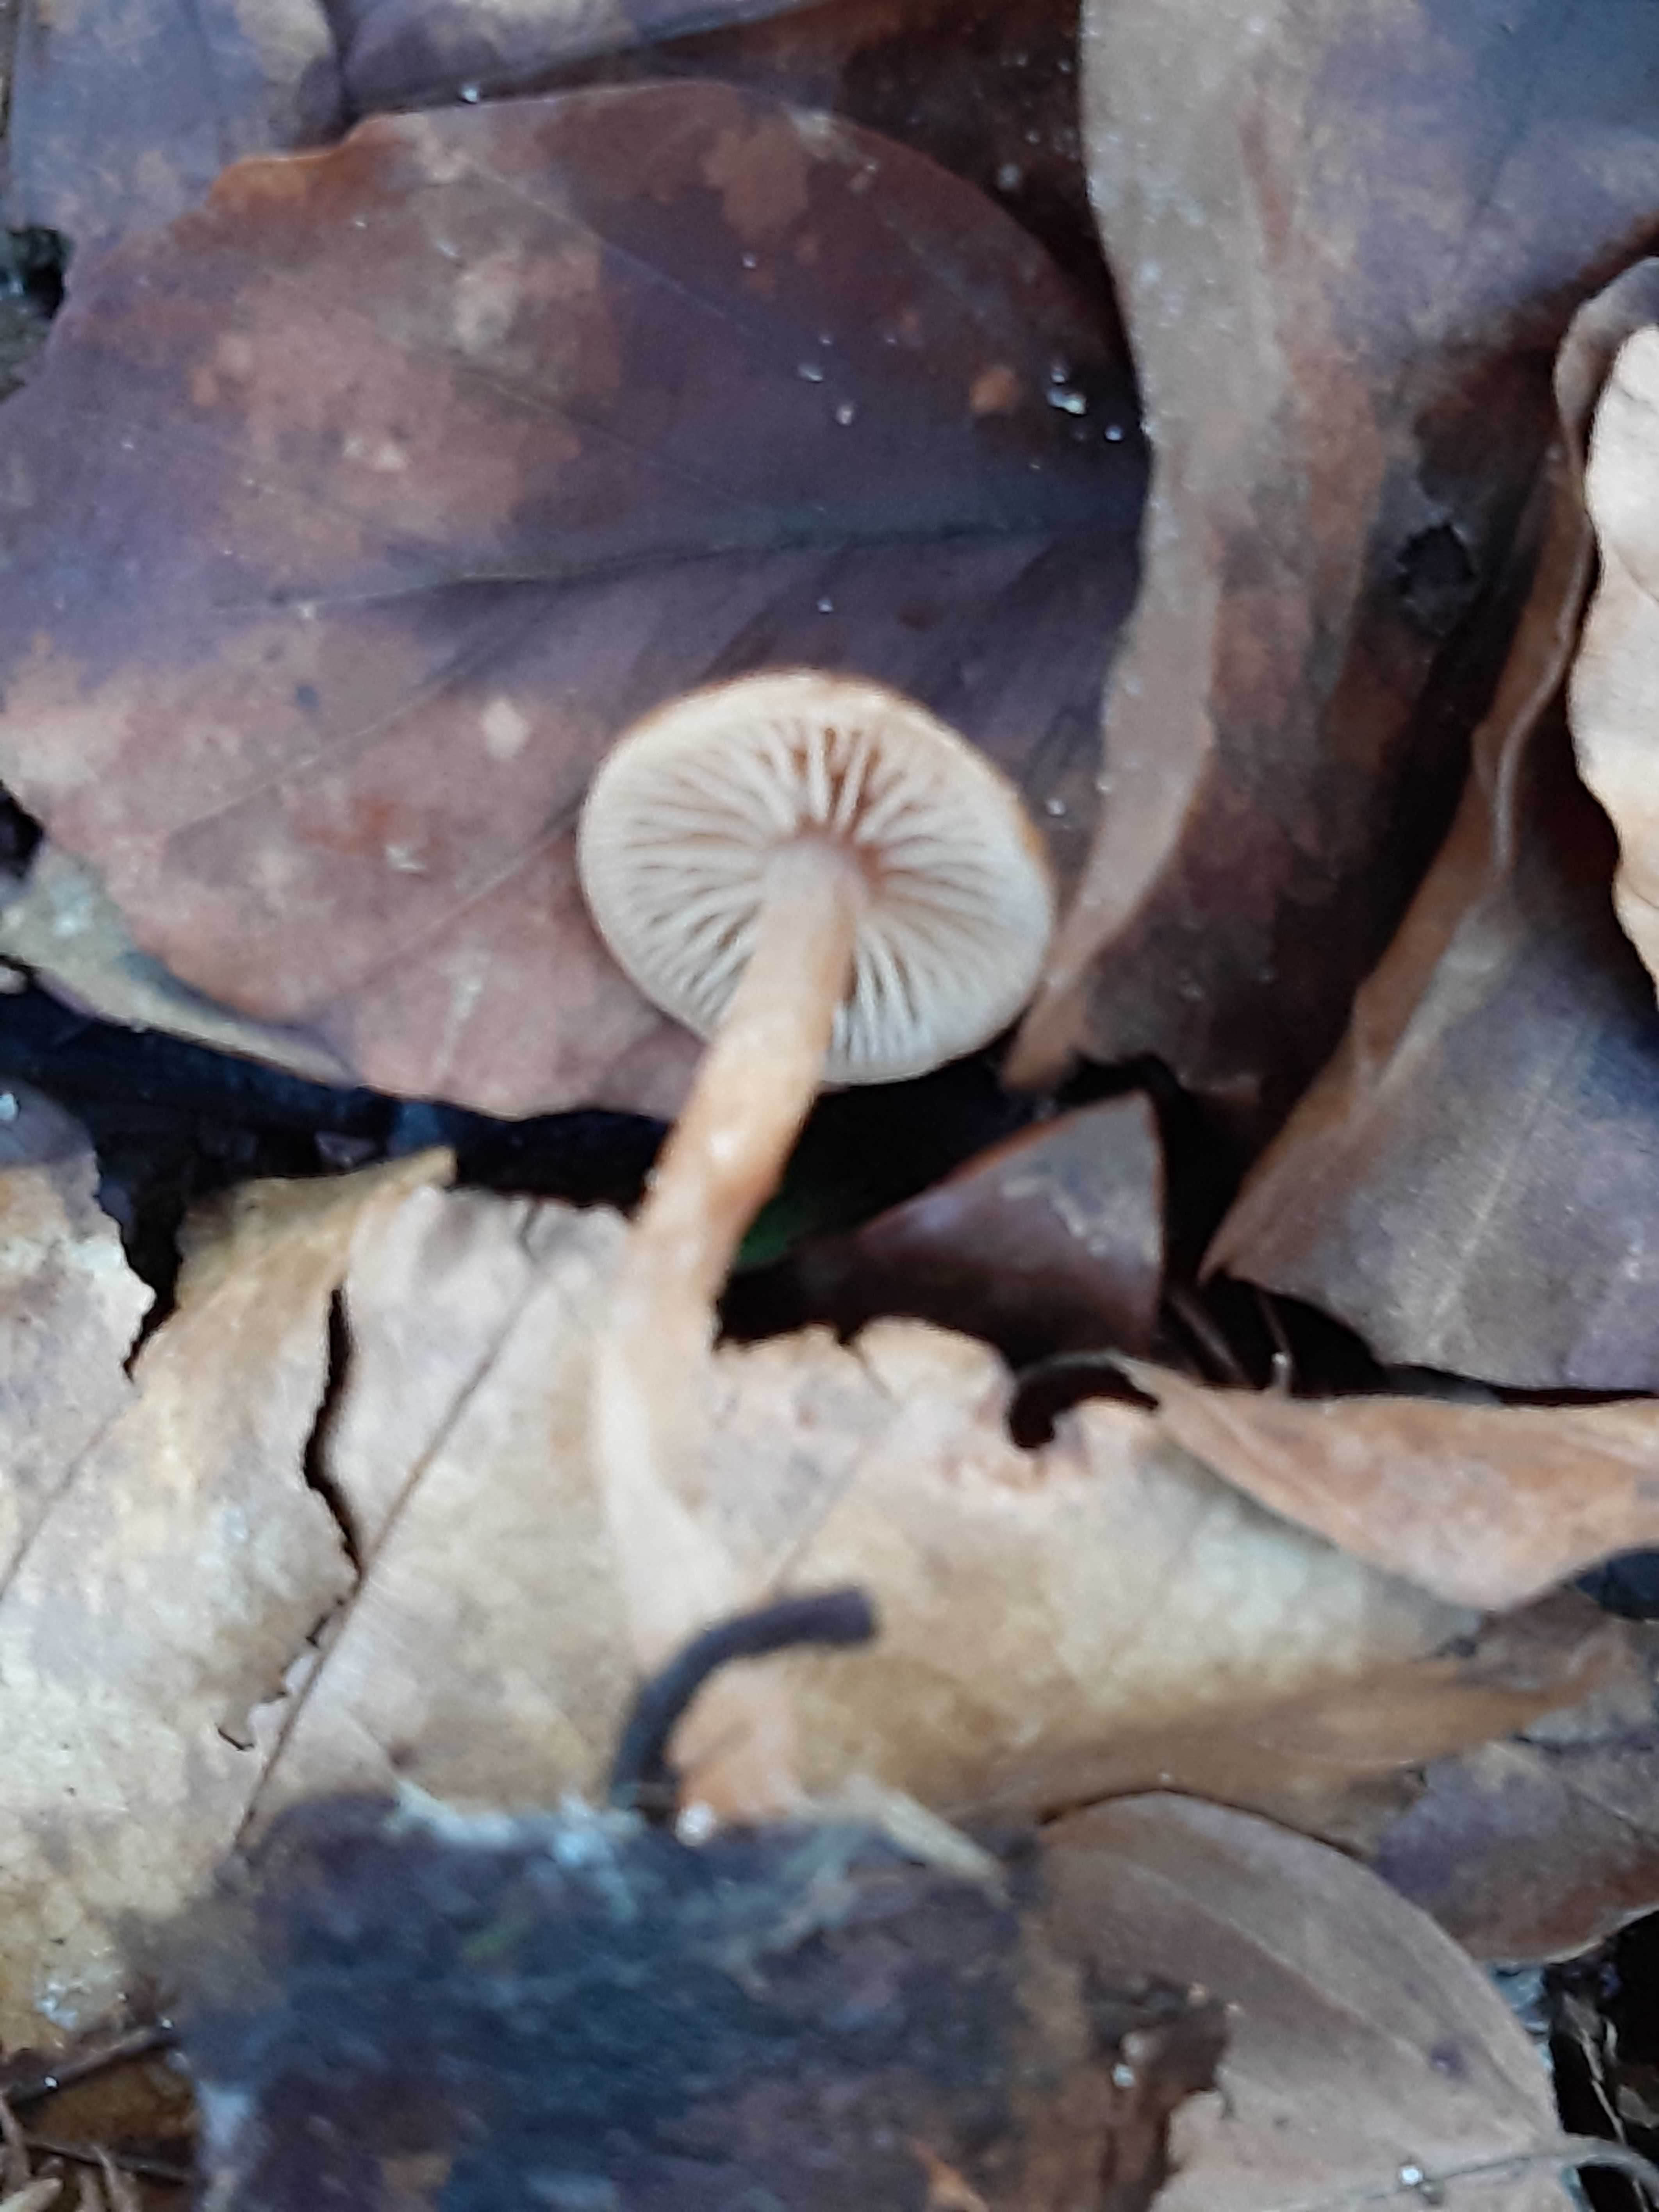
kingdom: Fungi
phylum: Basidiomycota
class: Agaricomycetes
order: Agaricales
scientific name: Agaricales
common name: champignonordenen
